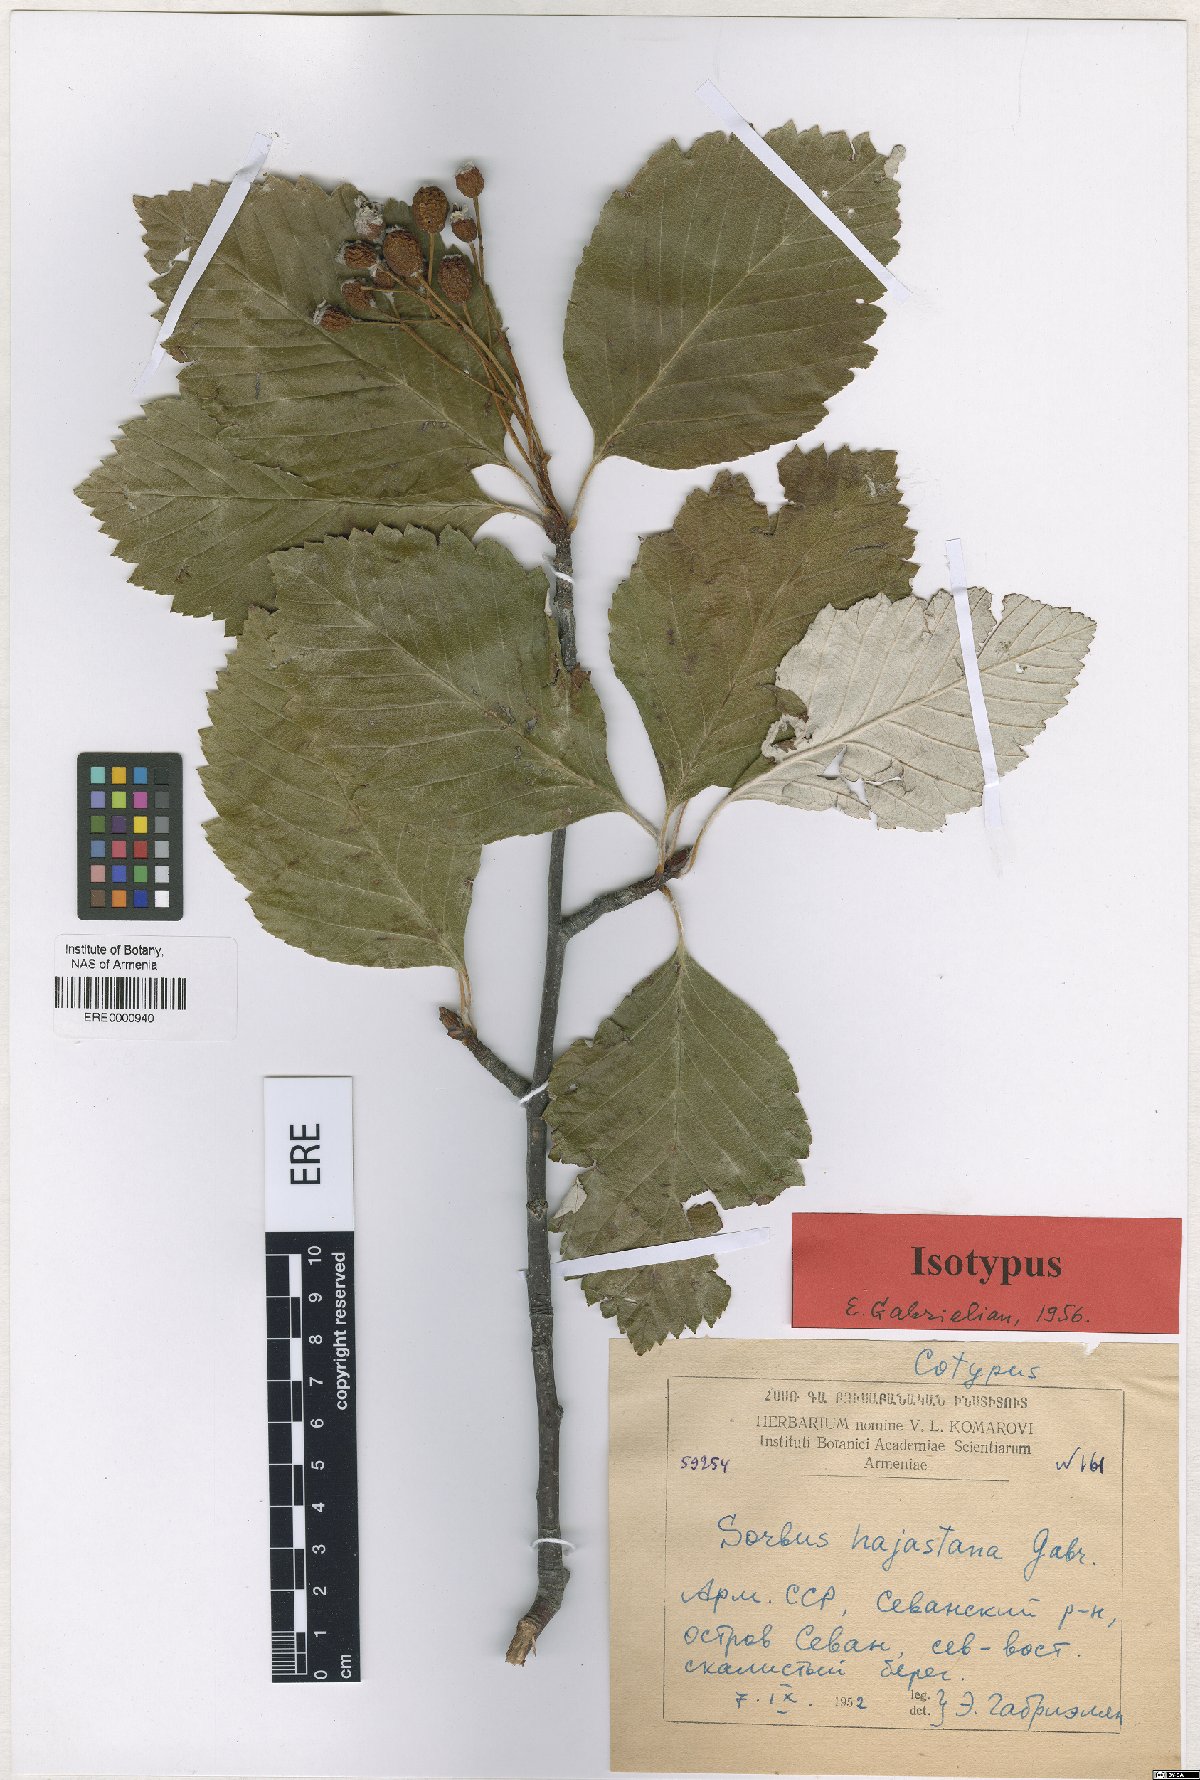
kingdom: Plantae
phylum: Tracheophyta
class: Magnoliopsida
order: Rosales
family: Rosaceae
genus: Sorbus
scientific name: Sorbus hajastana
